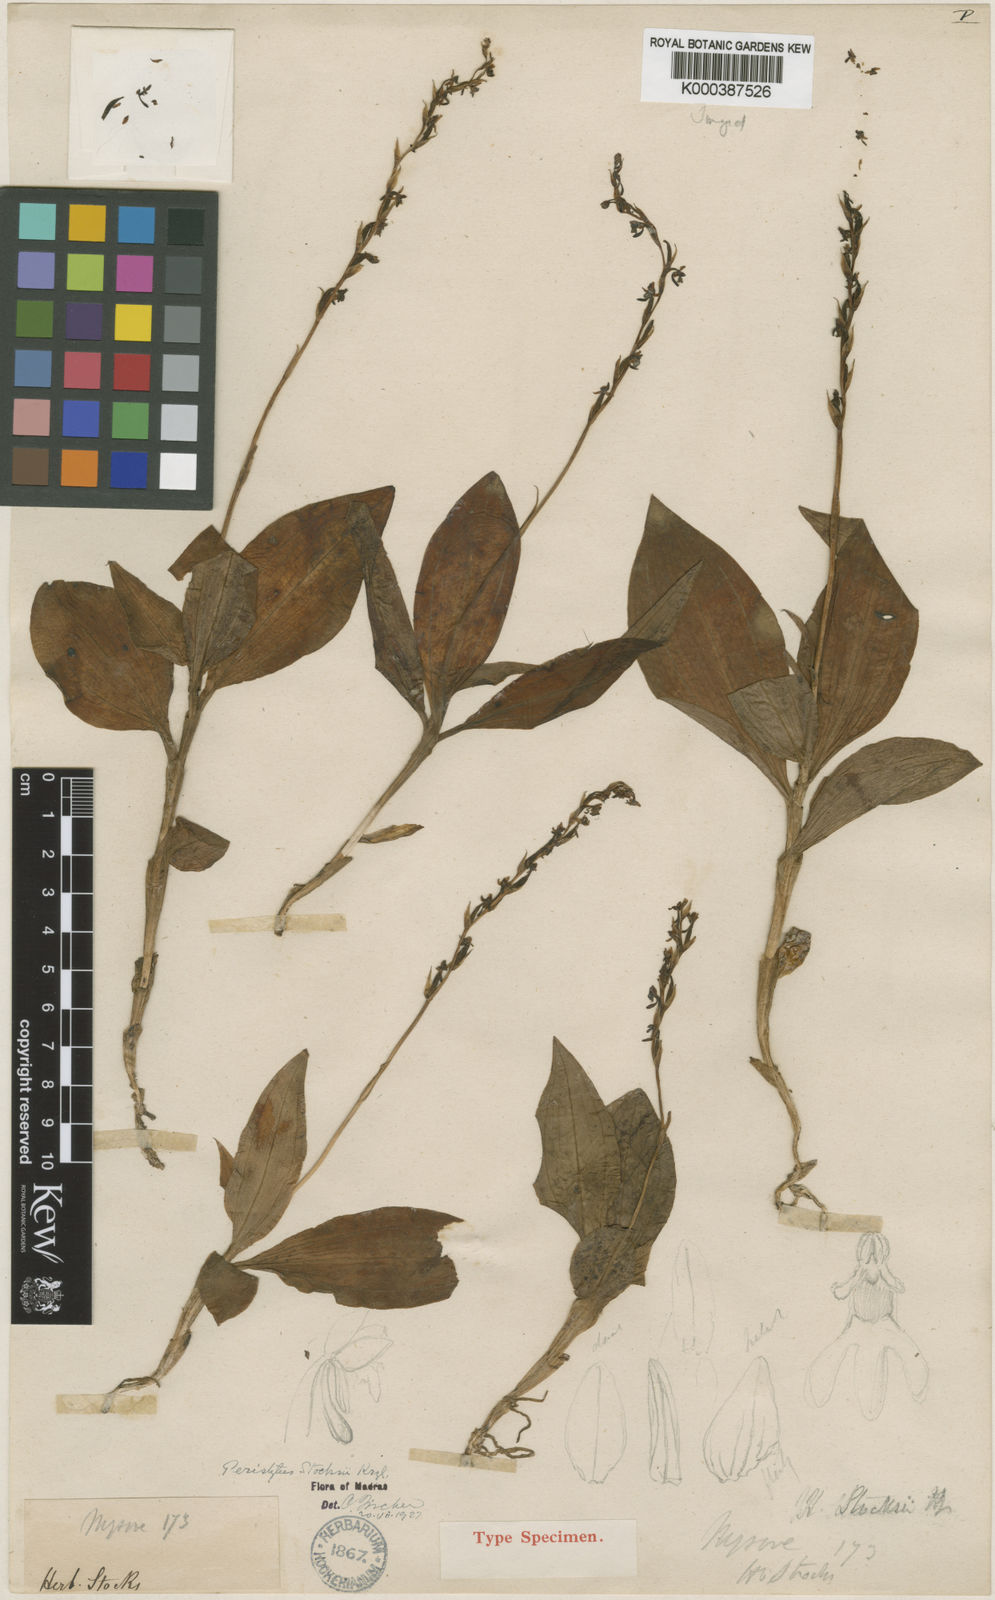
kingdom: Plantae
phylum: Tracheophyta
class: Liliopsida
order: Asparagales
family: Orchidaceae
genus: Peristylus
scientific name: Peristylus stocksii
